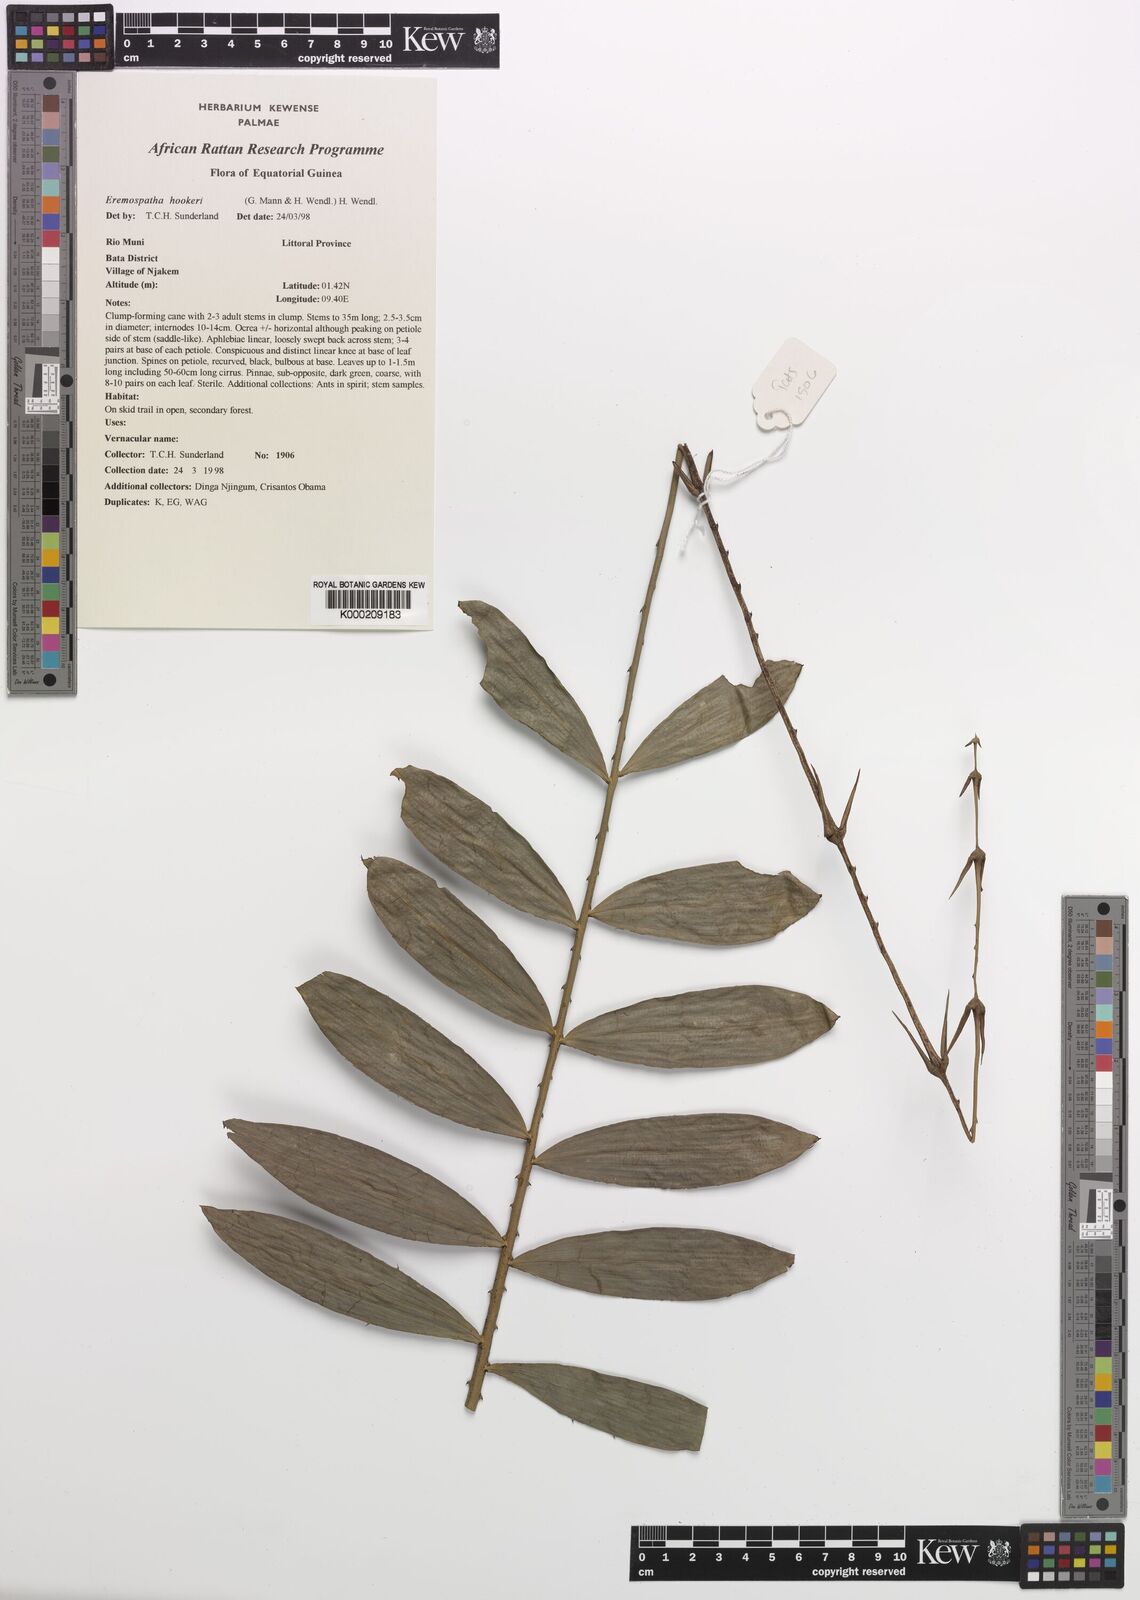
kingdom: Plantae
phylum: Tracheophyta
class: Liliopsida
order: Arecales
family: Arecaceae
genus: Eremospatha
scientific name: Eremospatha hookeri
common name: Rattan
